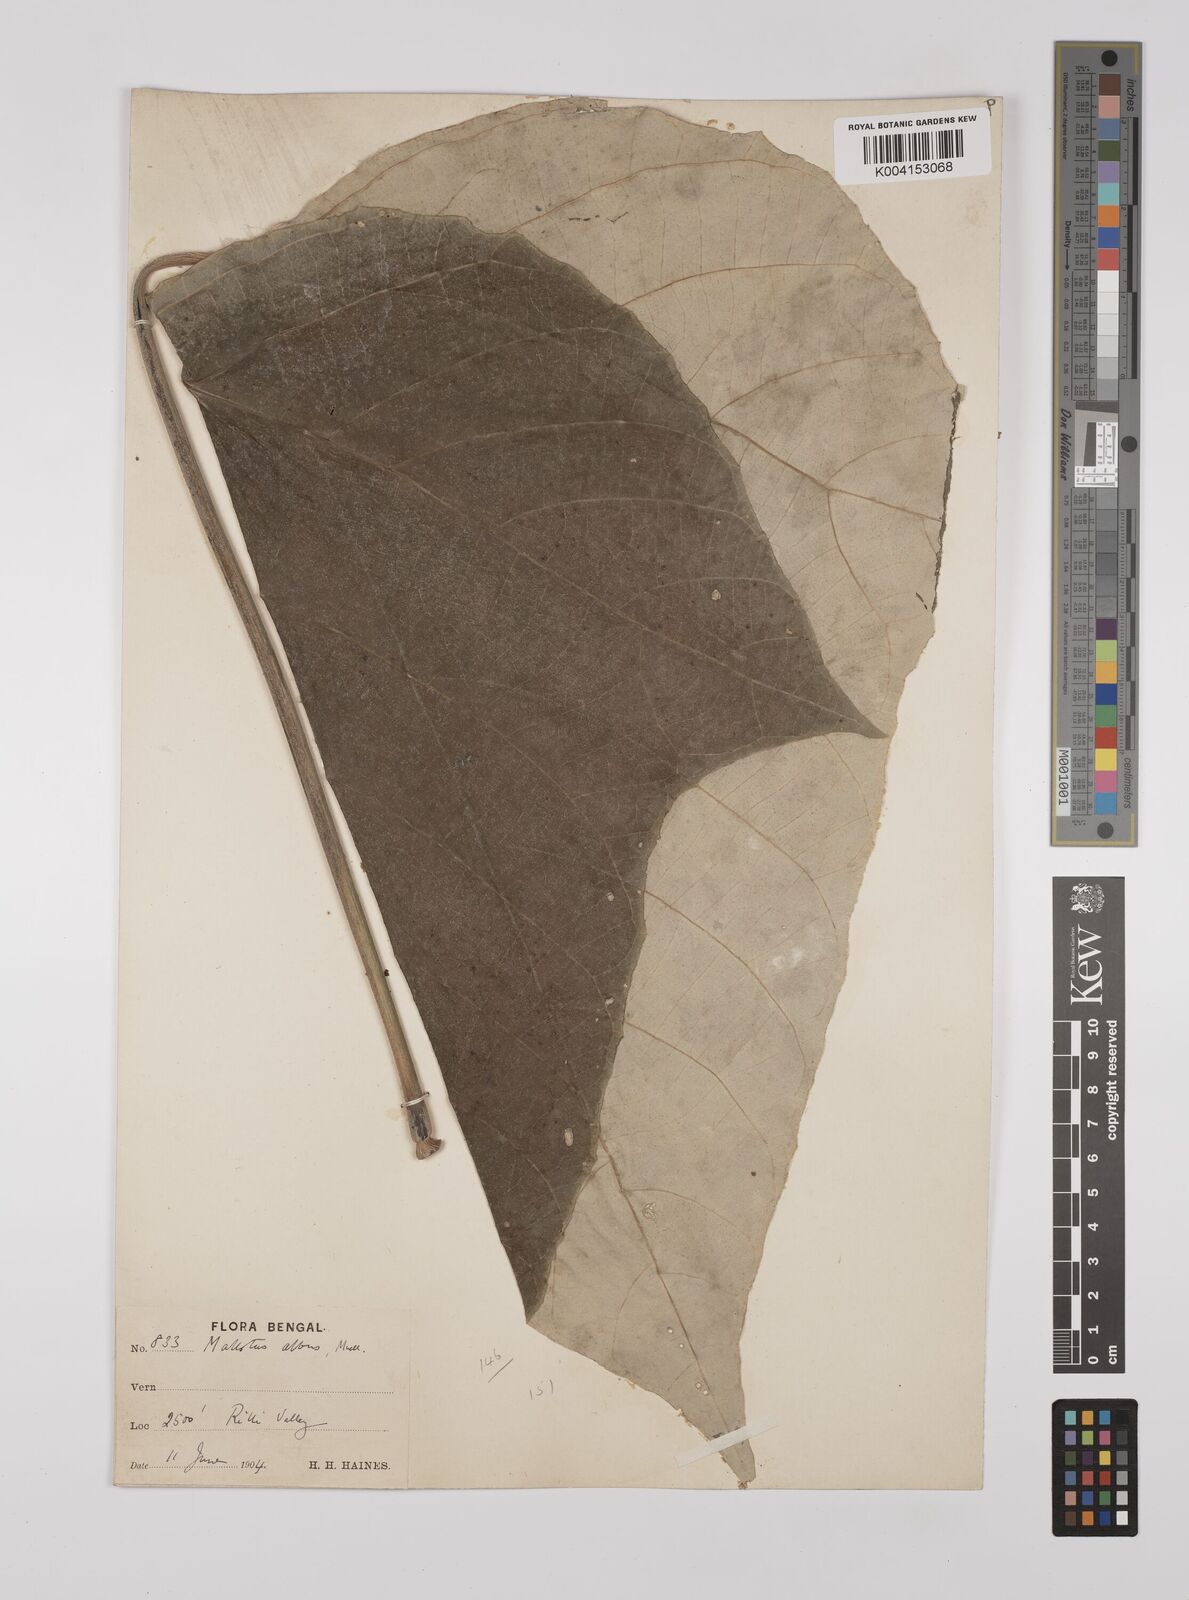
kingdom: Plantae
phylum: Tracheophyta
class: Magnoliopsida
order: Malpighiales
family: Euphorbiaceae
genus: Mallotus
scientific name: Mallotus tetracoccus
